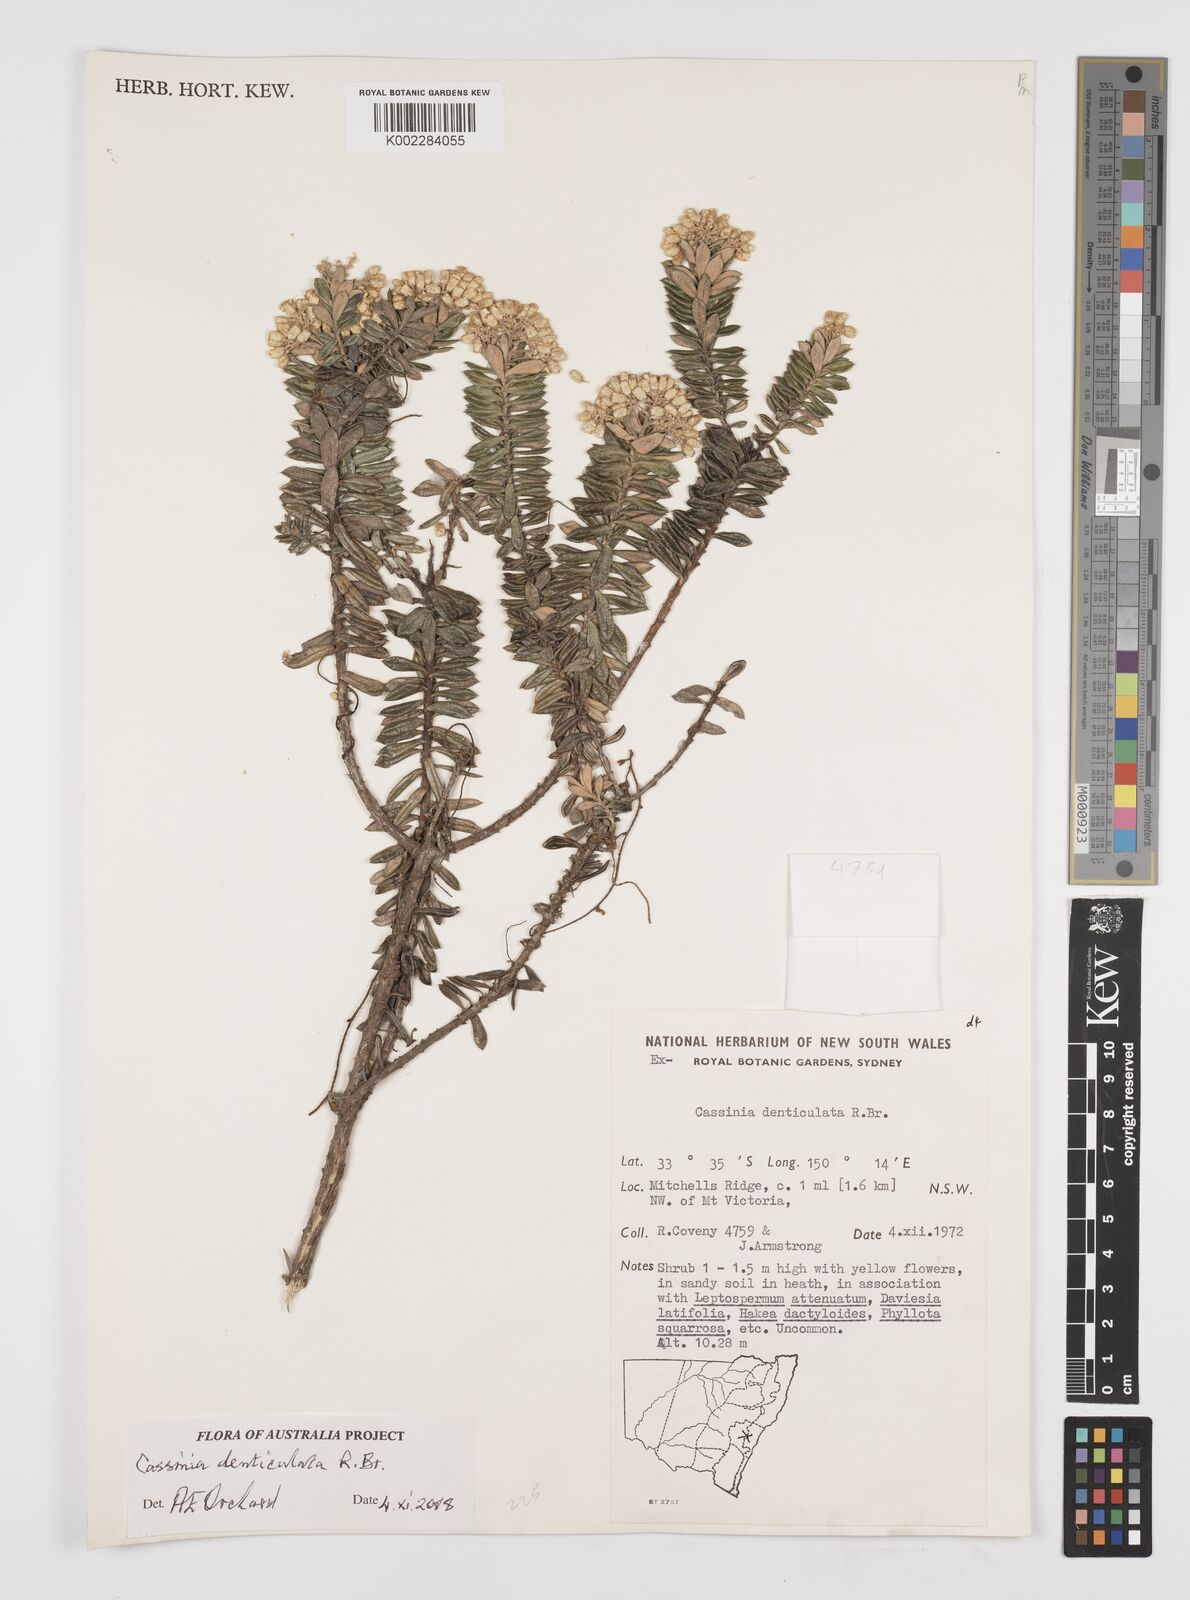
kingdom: Plantae
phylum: Tracheophyta
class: Magnoliopsida
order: Asterales
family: Asteraceae
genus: Cassinia
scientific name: Cassinia denticulata
